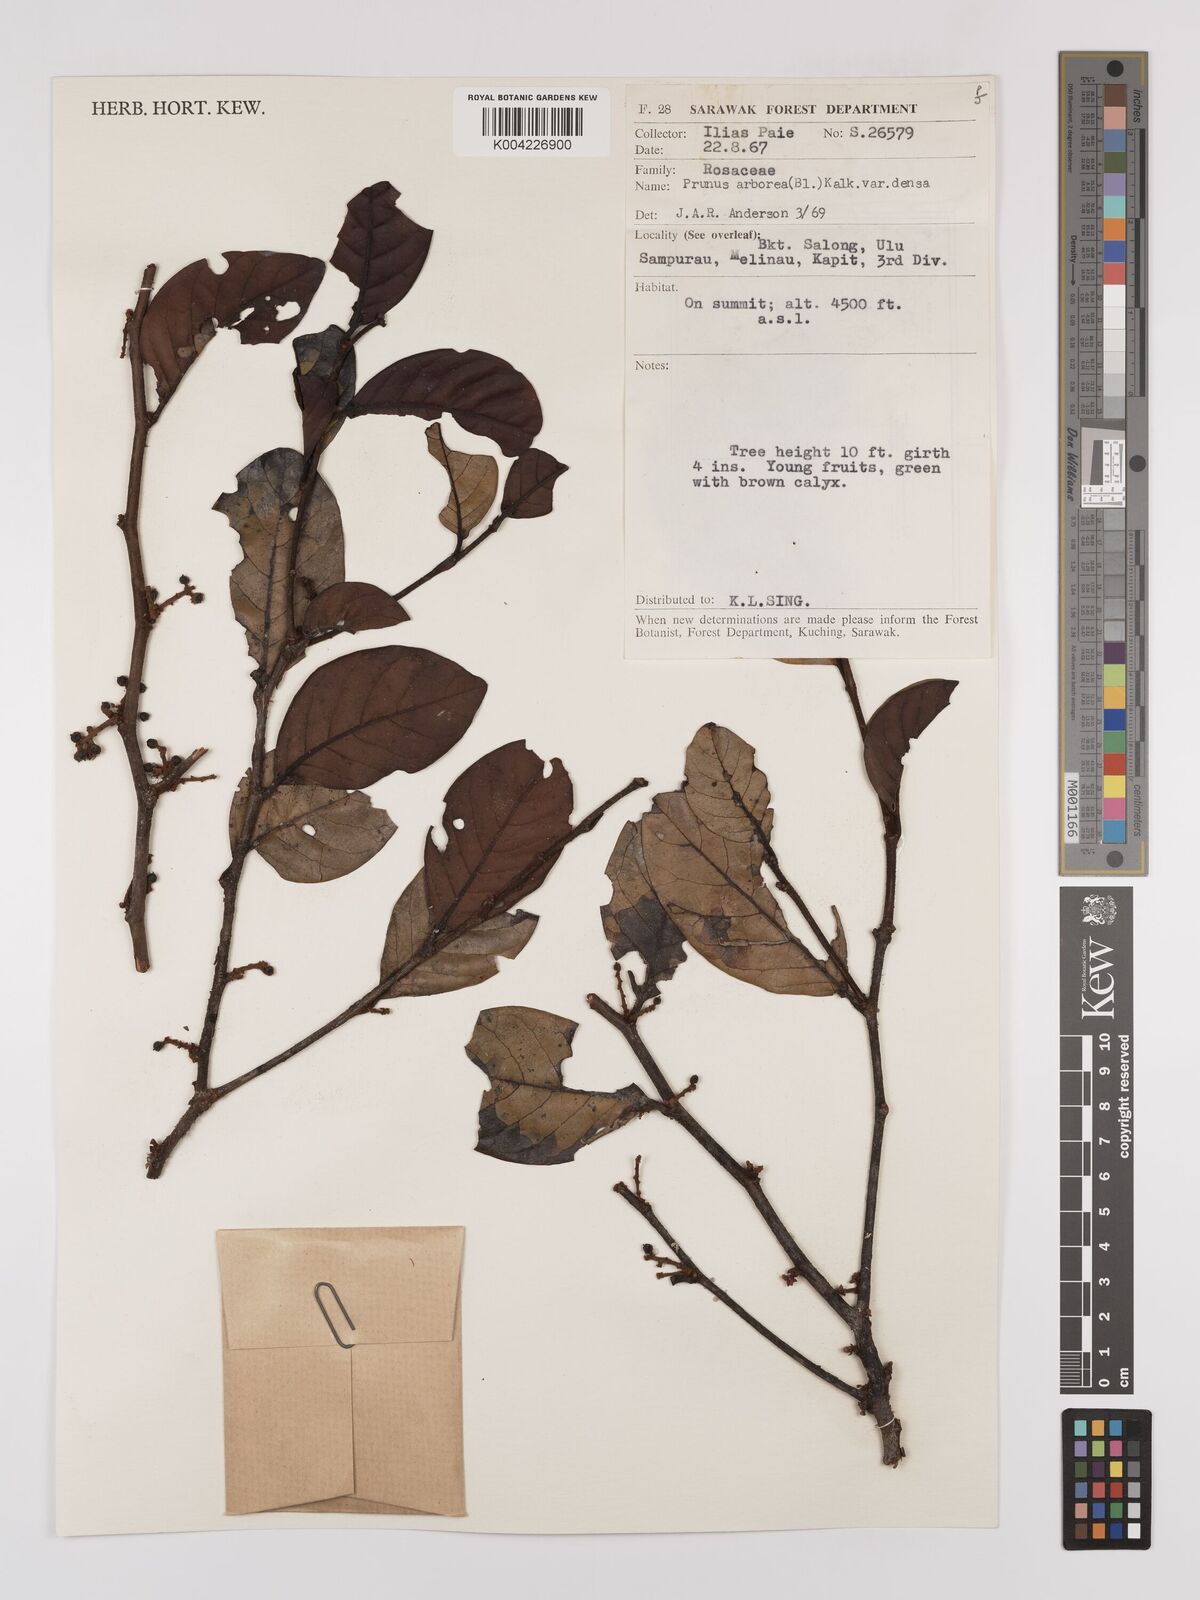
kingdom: Plantae
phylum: Tracheophyta
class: Magnoliopsida
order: Rosales
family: Rosaceae
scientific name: Rosaceae
